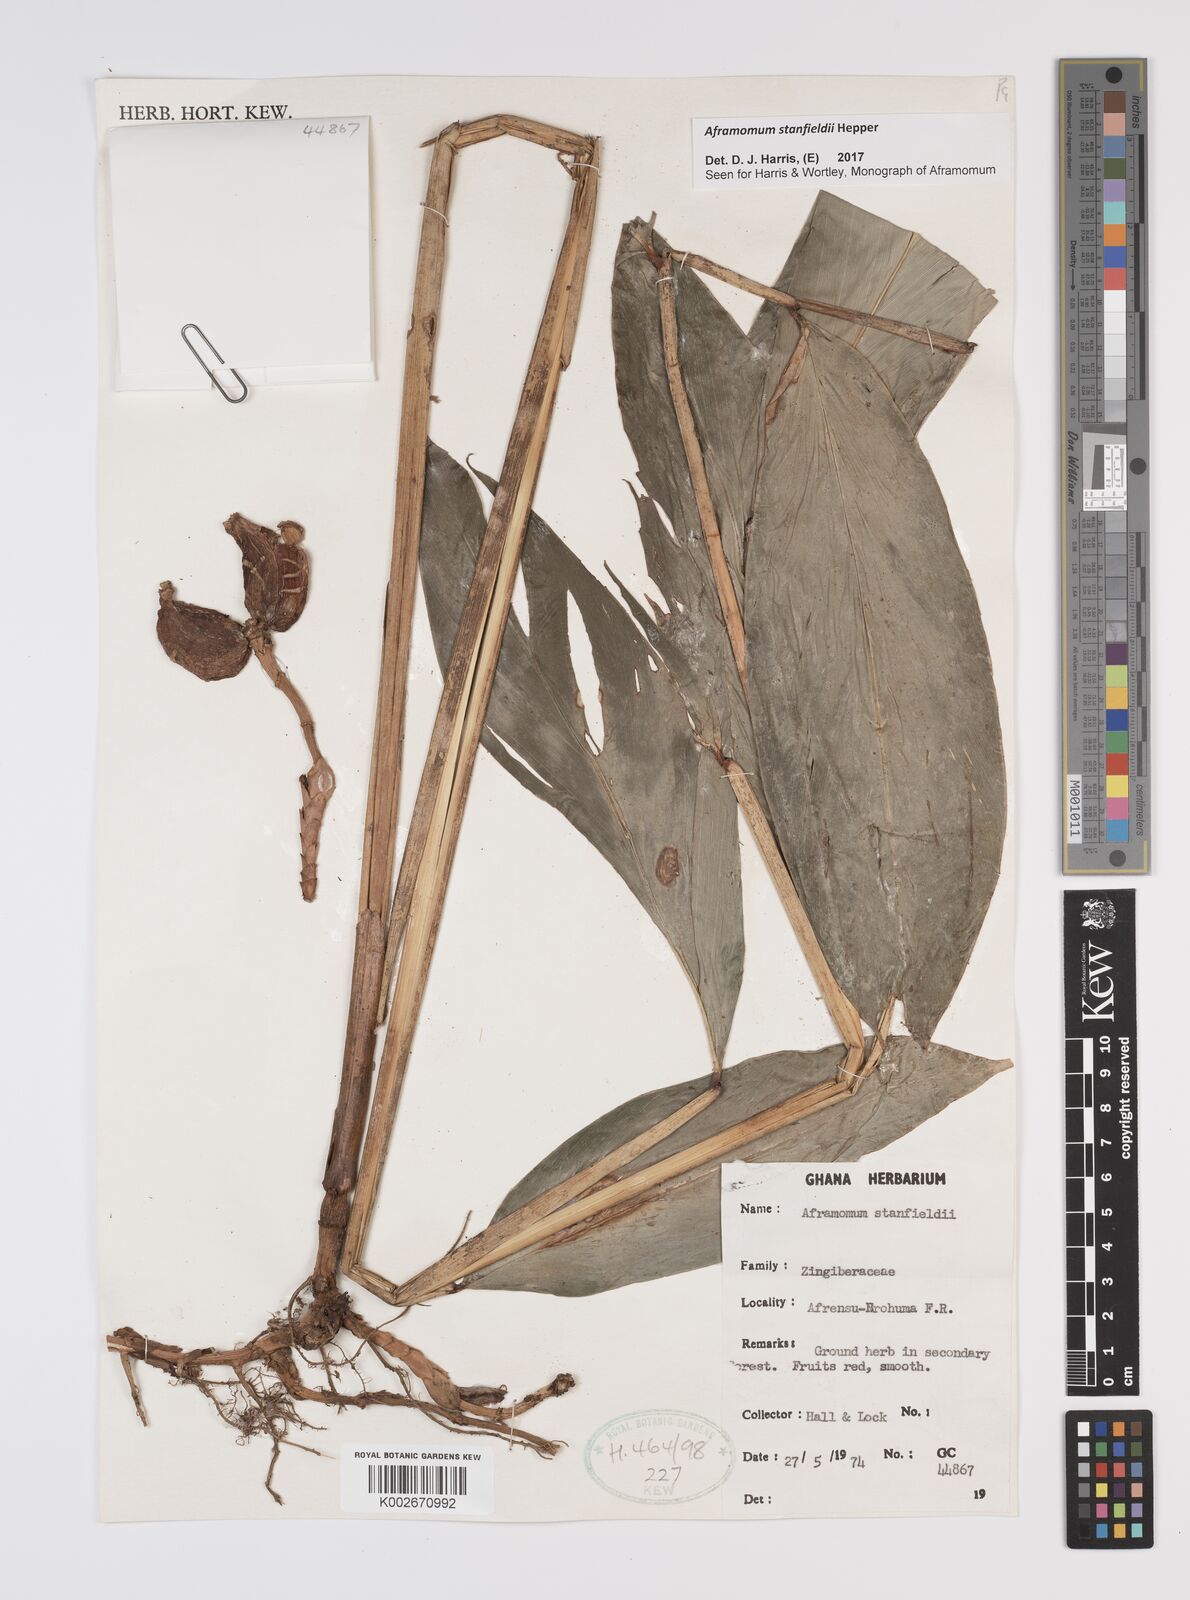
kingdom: Plantae
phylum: Tracheophyta
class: Liliopsida
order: Zingiberales
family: Zingiberaceae
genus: Aframomum
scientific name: Aframomum stanfieldii
